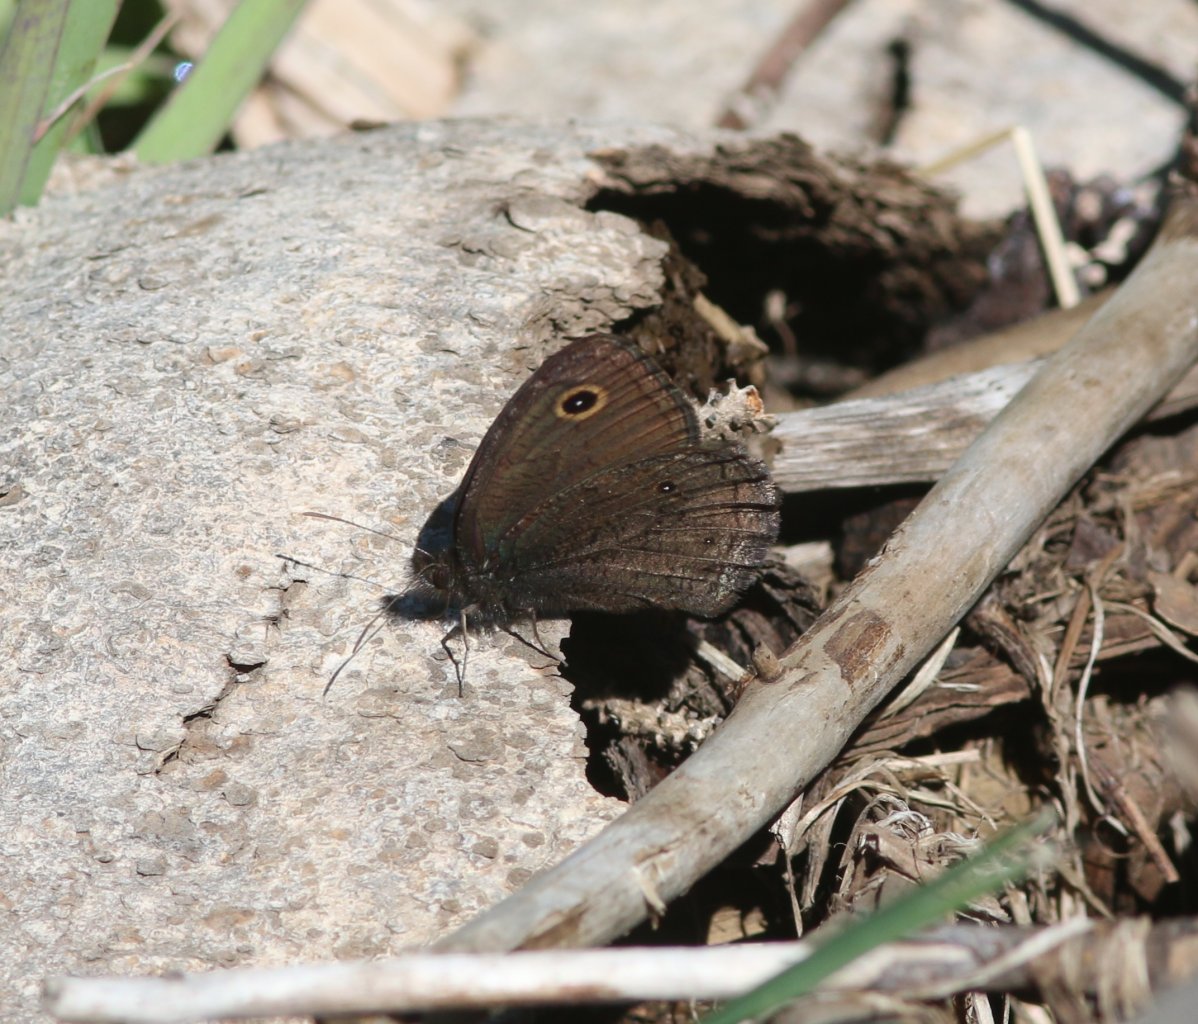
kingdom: Animalia
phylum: Arthropoda
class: Insecta
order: Lepidoptera
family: Nymphalidae
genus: Cercyonis
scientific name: Cercyonis oetus
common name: Small Wood-Nymph
